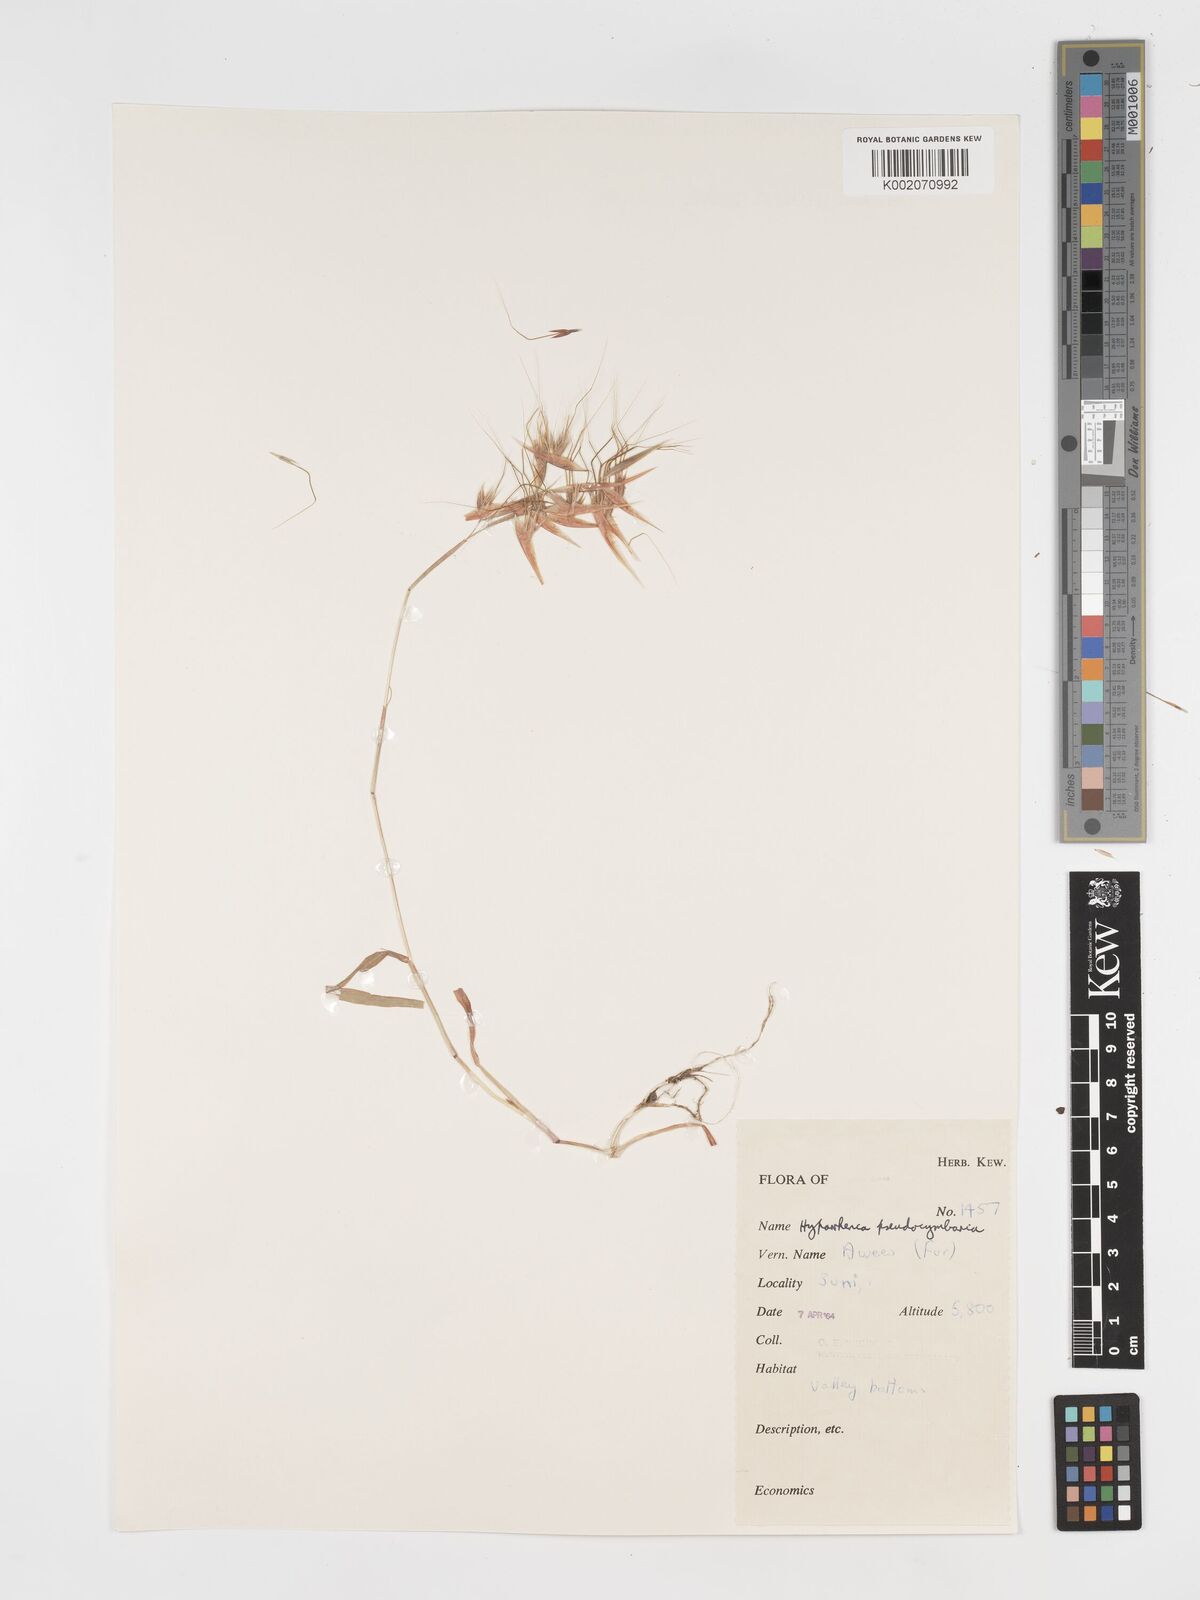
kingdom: Plantae
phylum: Tracheophyta
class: Liliopsida
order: Poales
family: Poaceae
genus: Hyparrhenia
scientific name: Hyparrhenia anthistirioides
